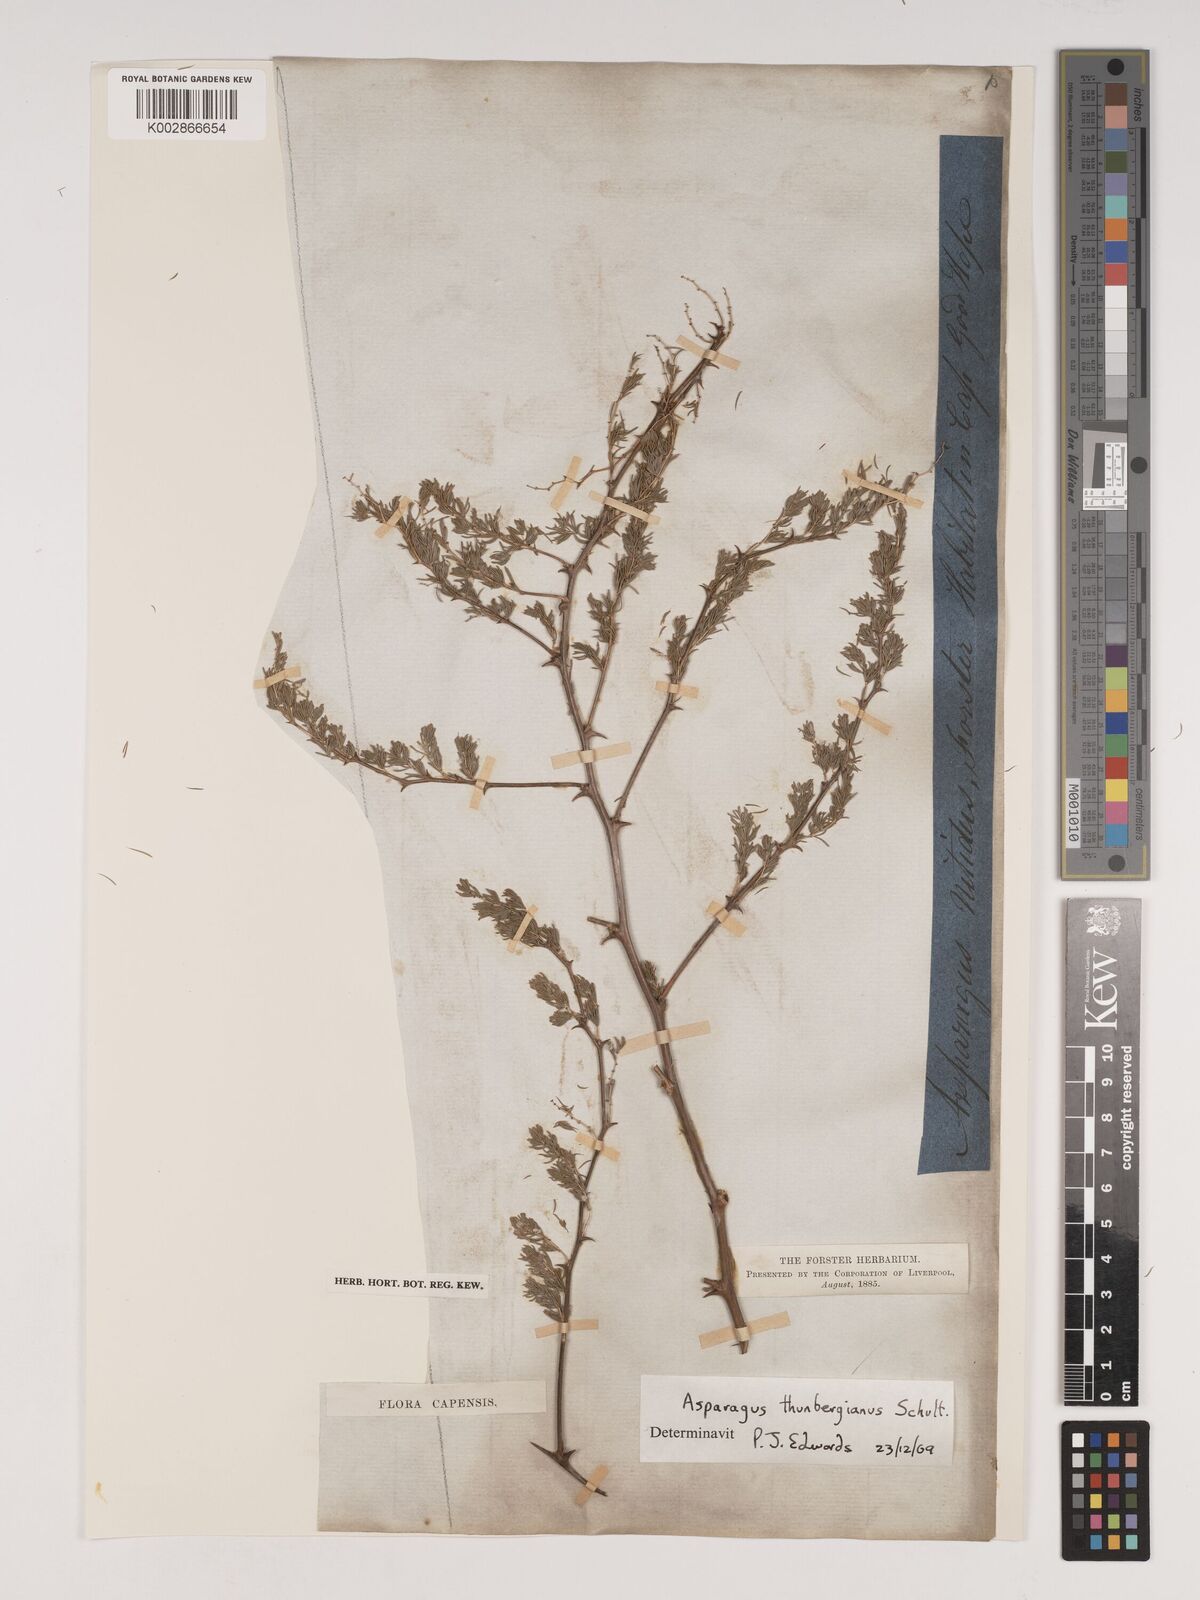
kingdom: Plantae
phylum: Tracheophyta
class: Liliopsida
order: Asparagales
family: Asparagaceae
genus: Asparagus
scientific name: Asparagus rubicundus
